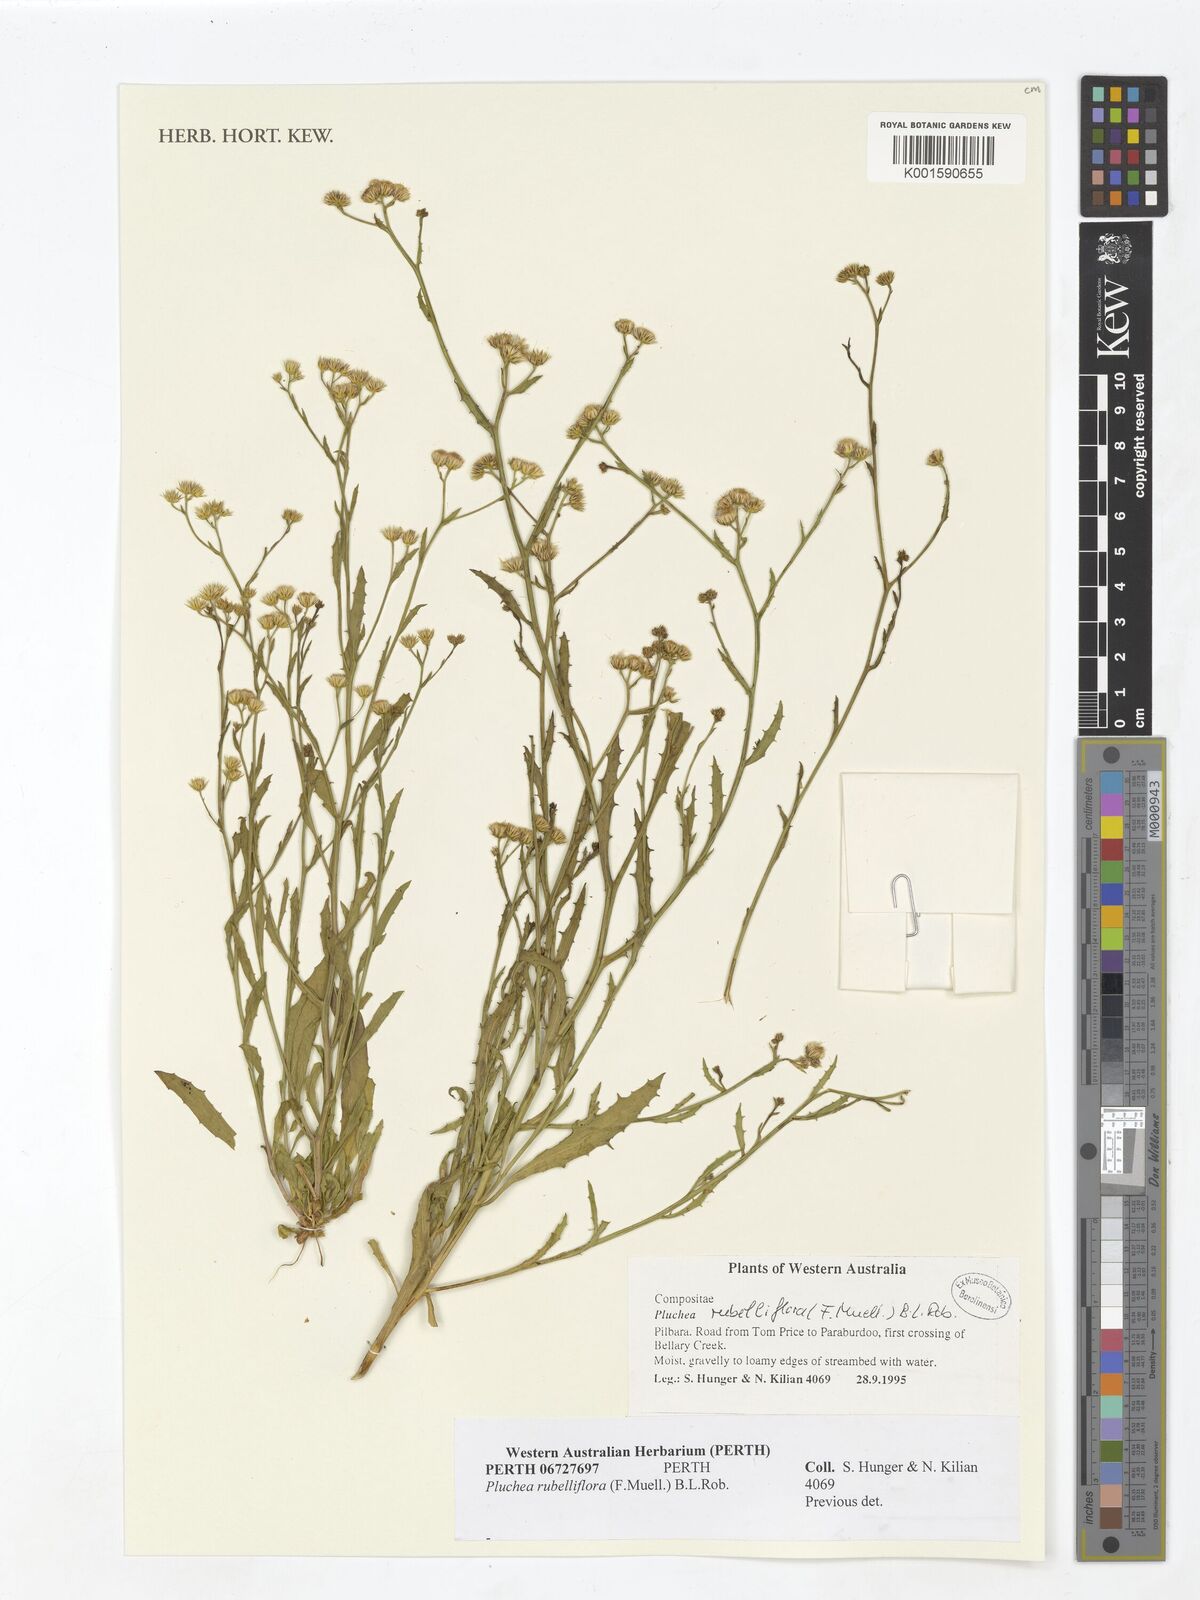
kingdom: Plantae
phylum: Tracheophyta
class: Magnoliopsida
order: Asterales
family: Asteraceae
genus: Pluchea
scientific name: Pluchea rubelliflora
